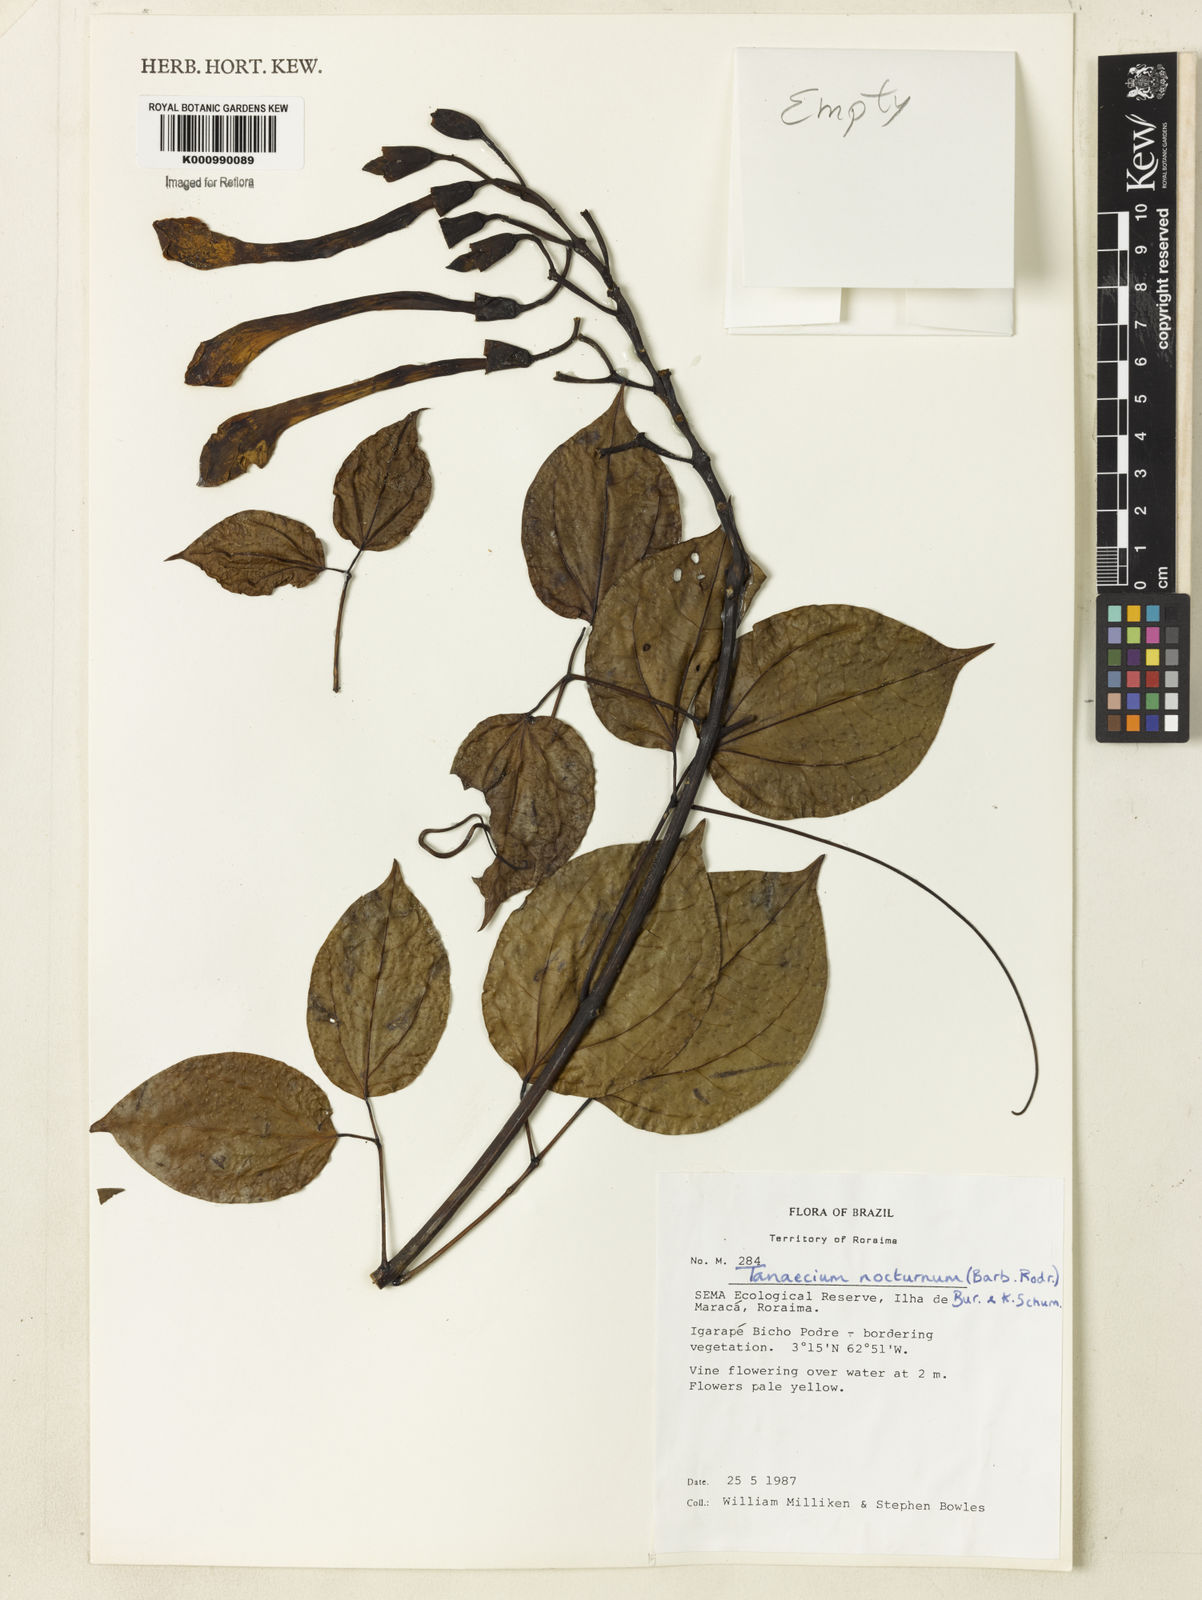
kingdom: Plantae
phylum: Tracheophyta
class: Magnoliopsida
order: Lamiales
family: Bignoniaceae
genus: Bignonia
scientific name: Bignonia nocturna
